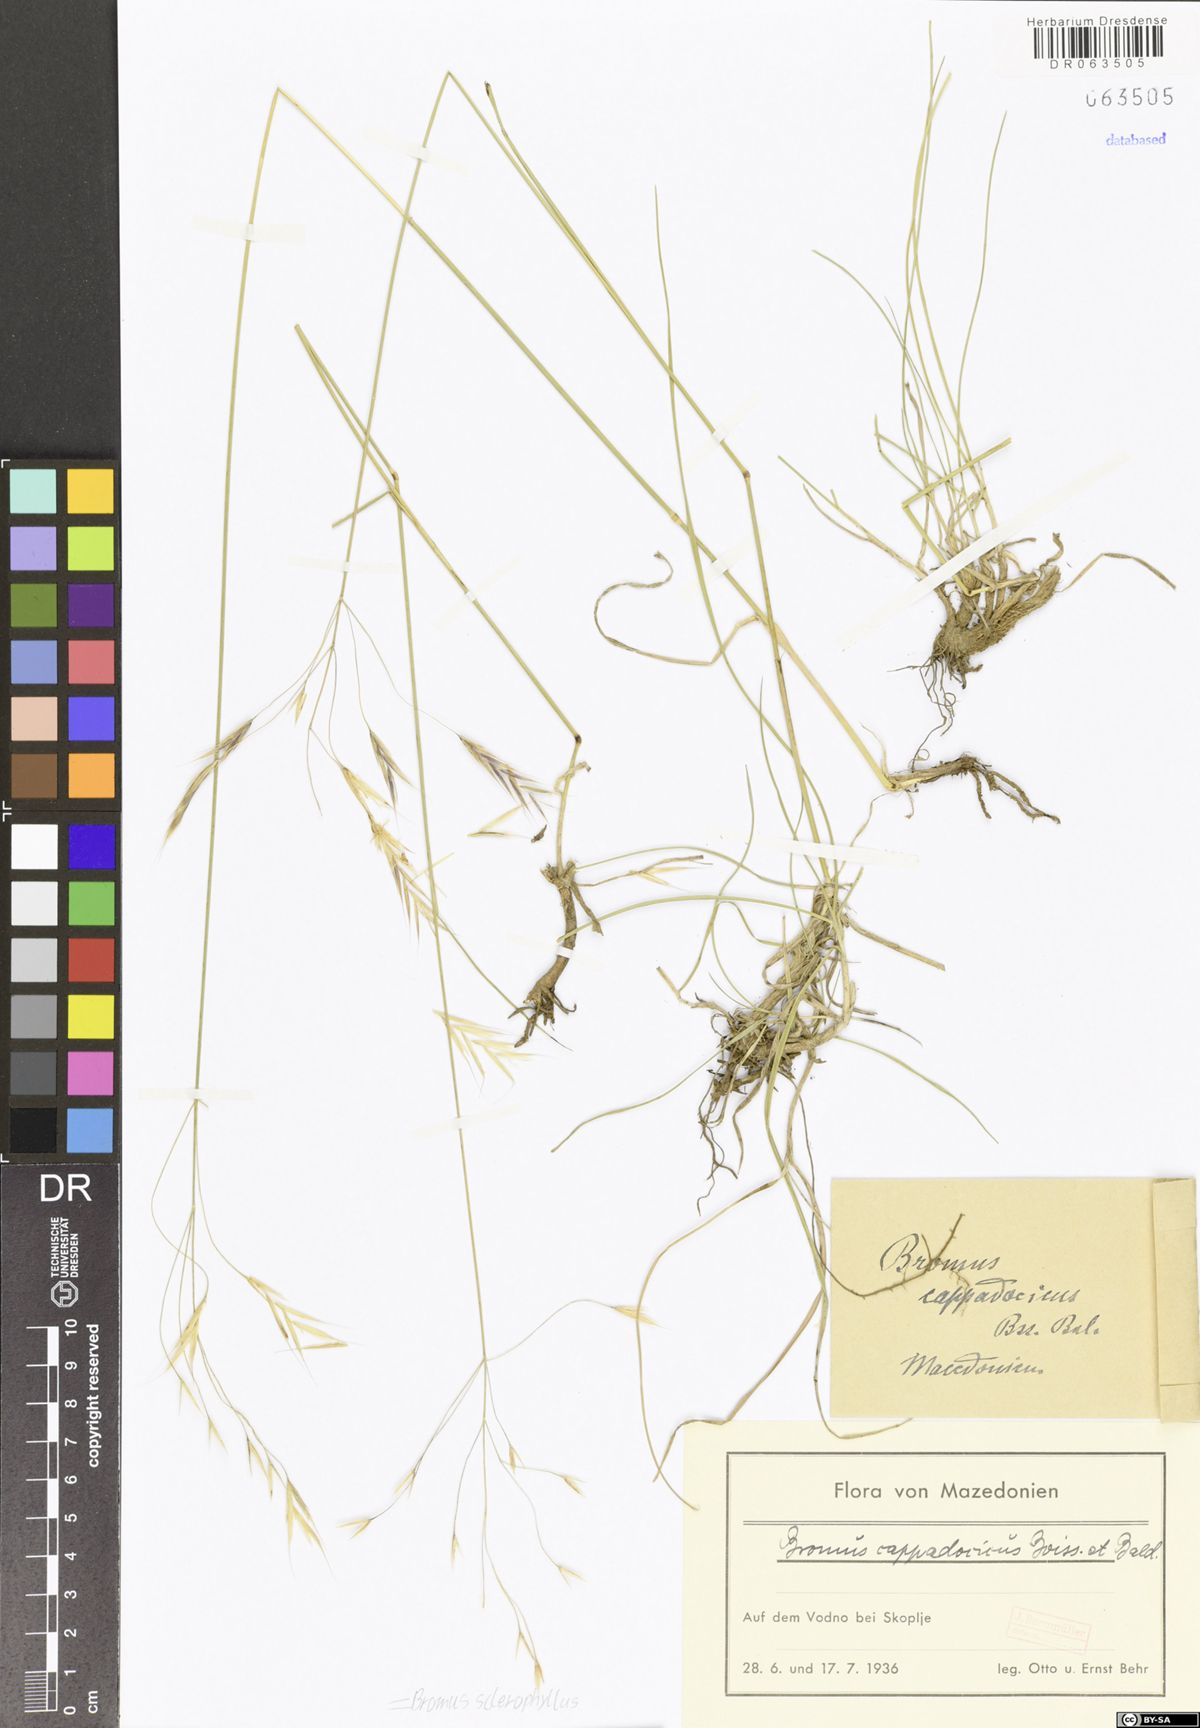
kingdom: Plantae
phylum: Tracheophyta
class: Liliopsida
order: Poales
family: Poaceae
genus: Bromus
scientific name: Bromus sclerophyllus
